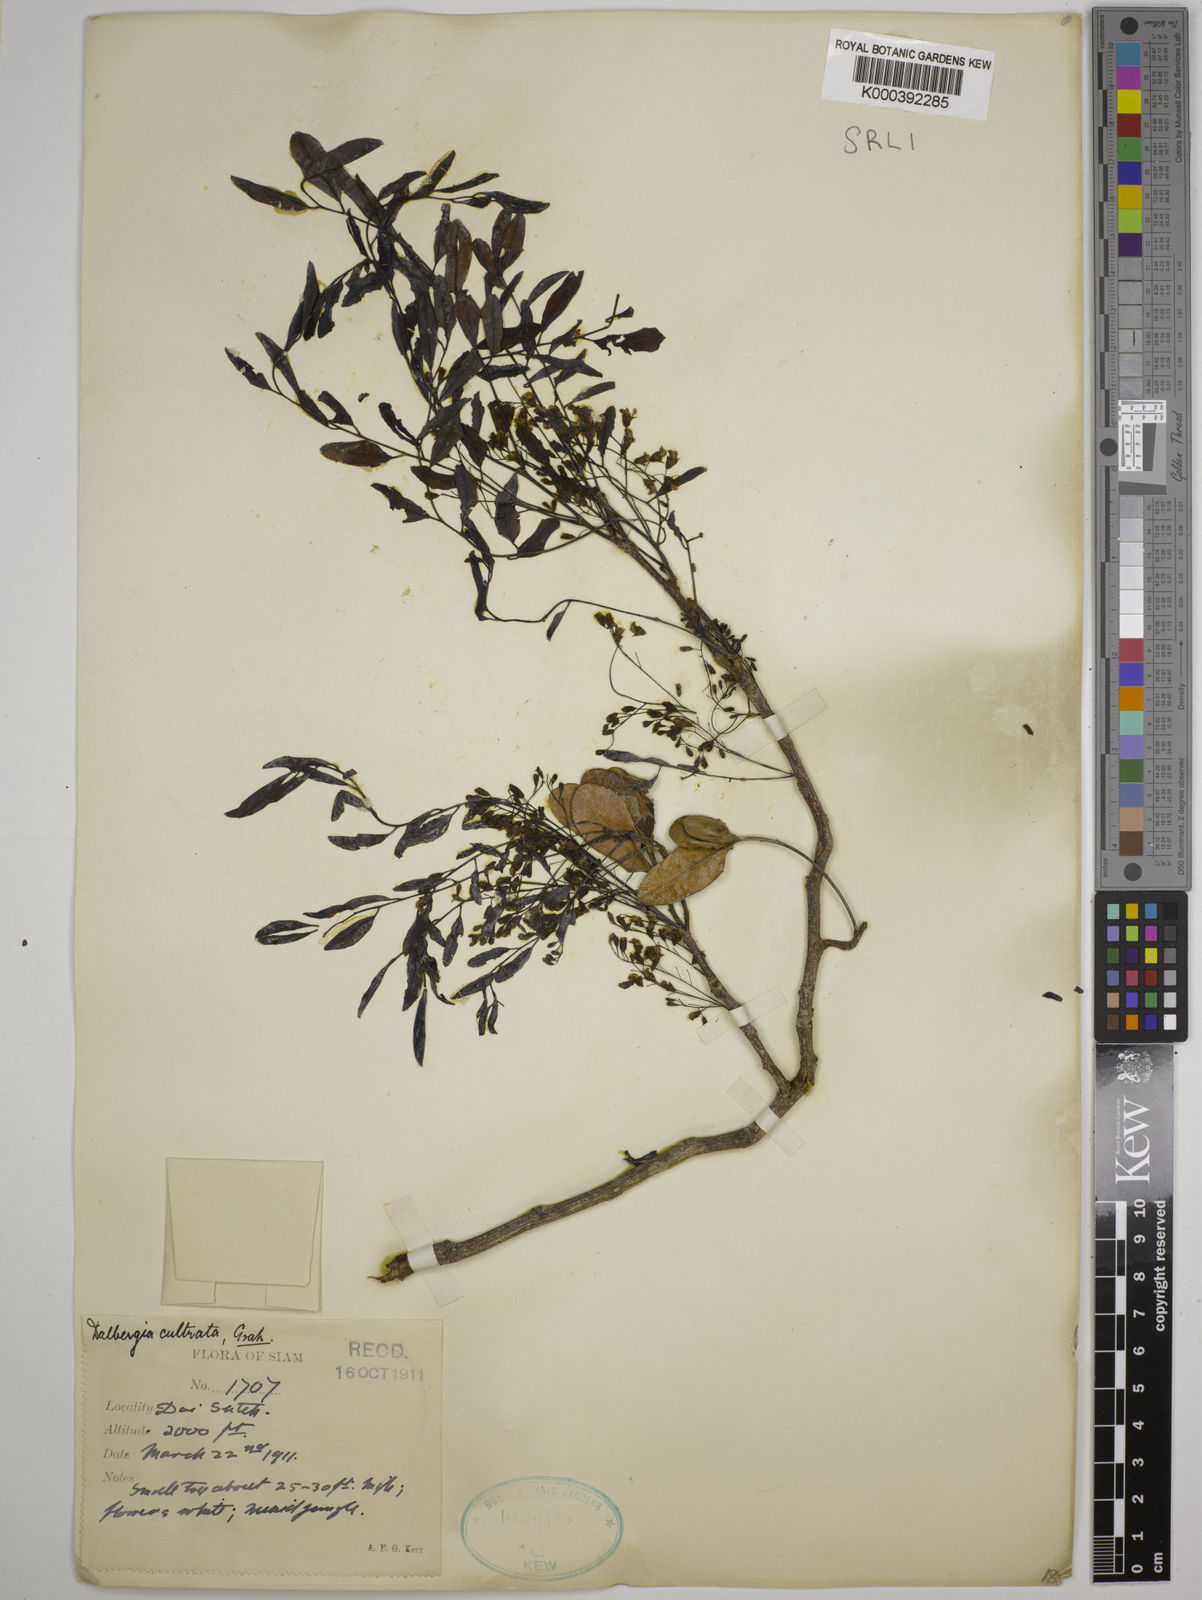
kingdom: Plantae
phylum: Tracheophyta
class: Magnoliopsida
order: Fabales
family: Fabaceae
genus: Dalbergia
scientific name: Dalbergia
